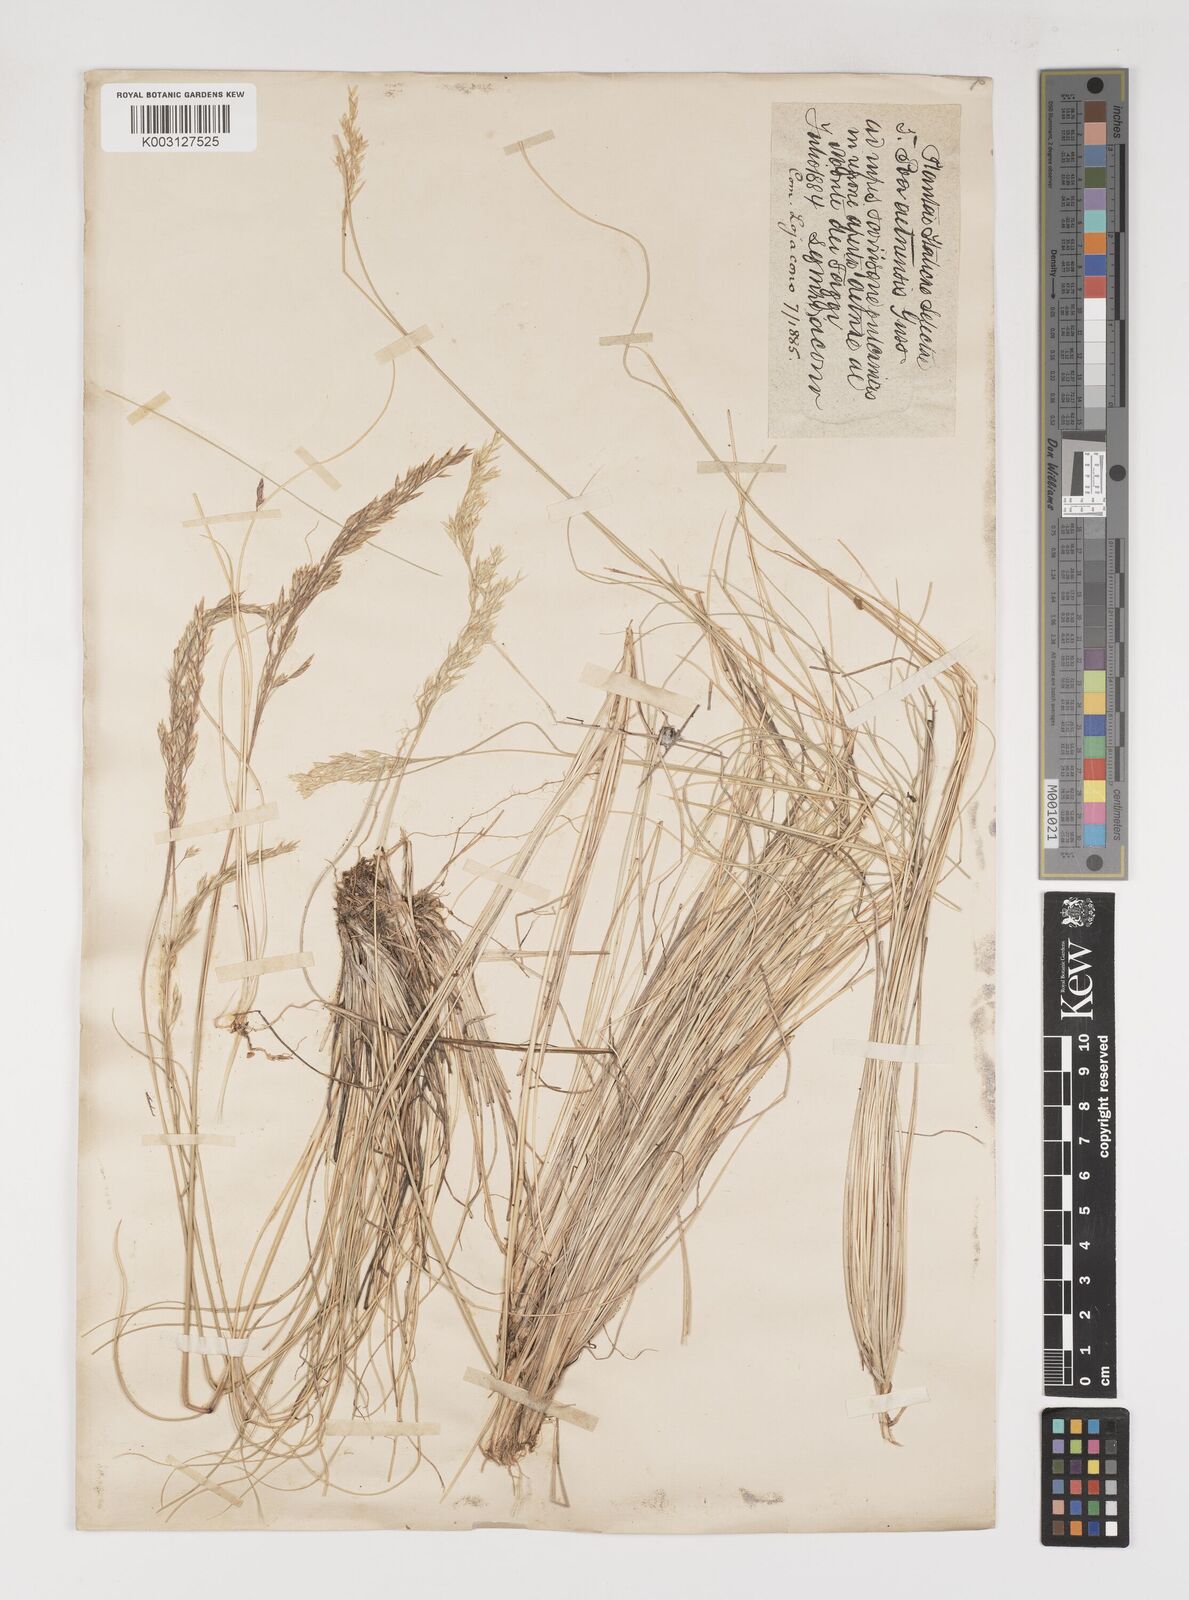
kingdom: Plantae
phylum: Tracheophyta
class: Liliopsida
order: Poales
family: Poaceae
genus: Bellardiochloa
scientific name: Bellardiochloa variegata
